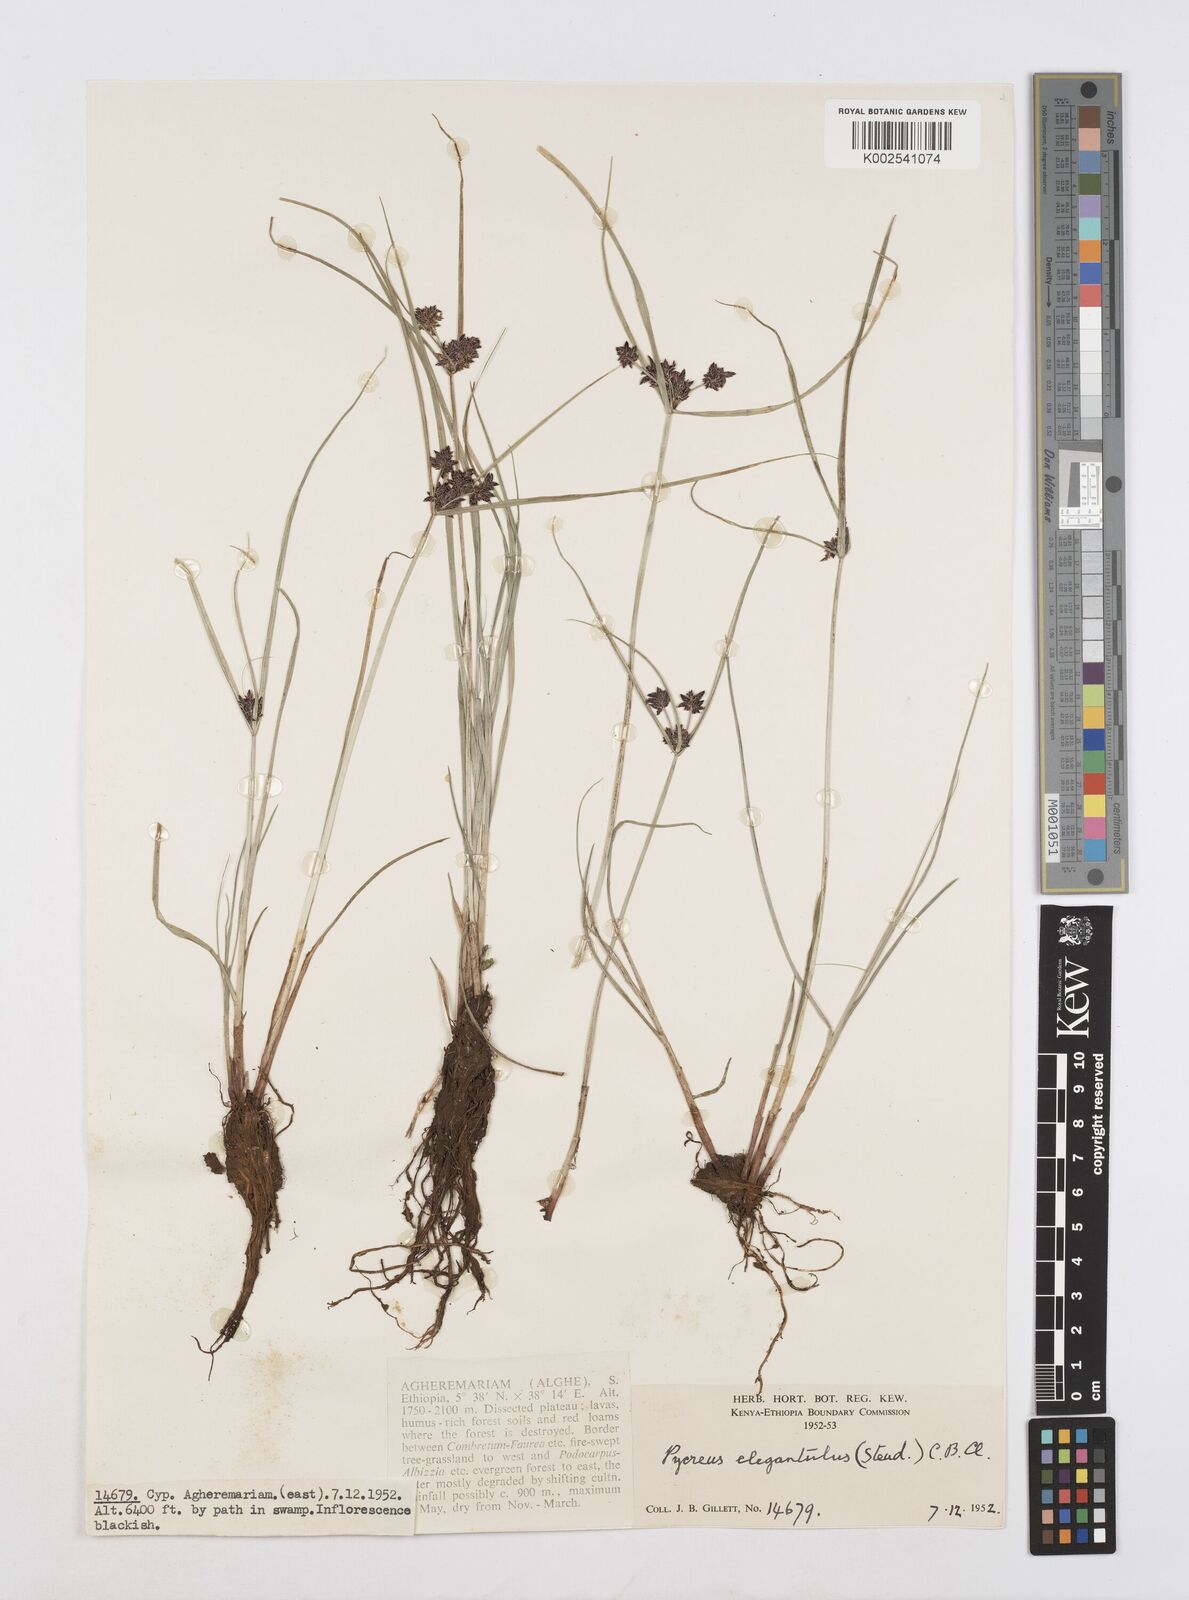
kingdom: Plantae
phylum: Tracheophyta
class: Liliopsida
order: Poales
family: Cyperaceae
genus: Cyperus
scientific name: Cyperus elegantulus
